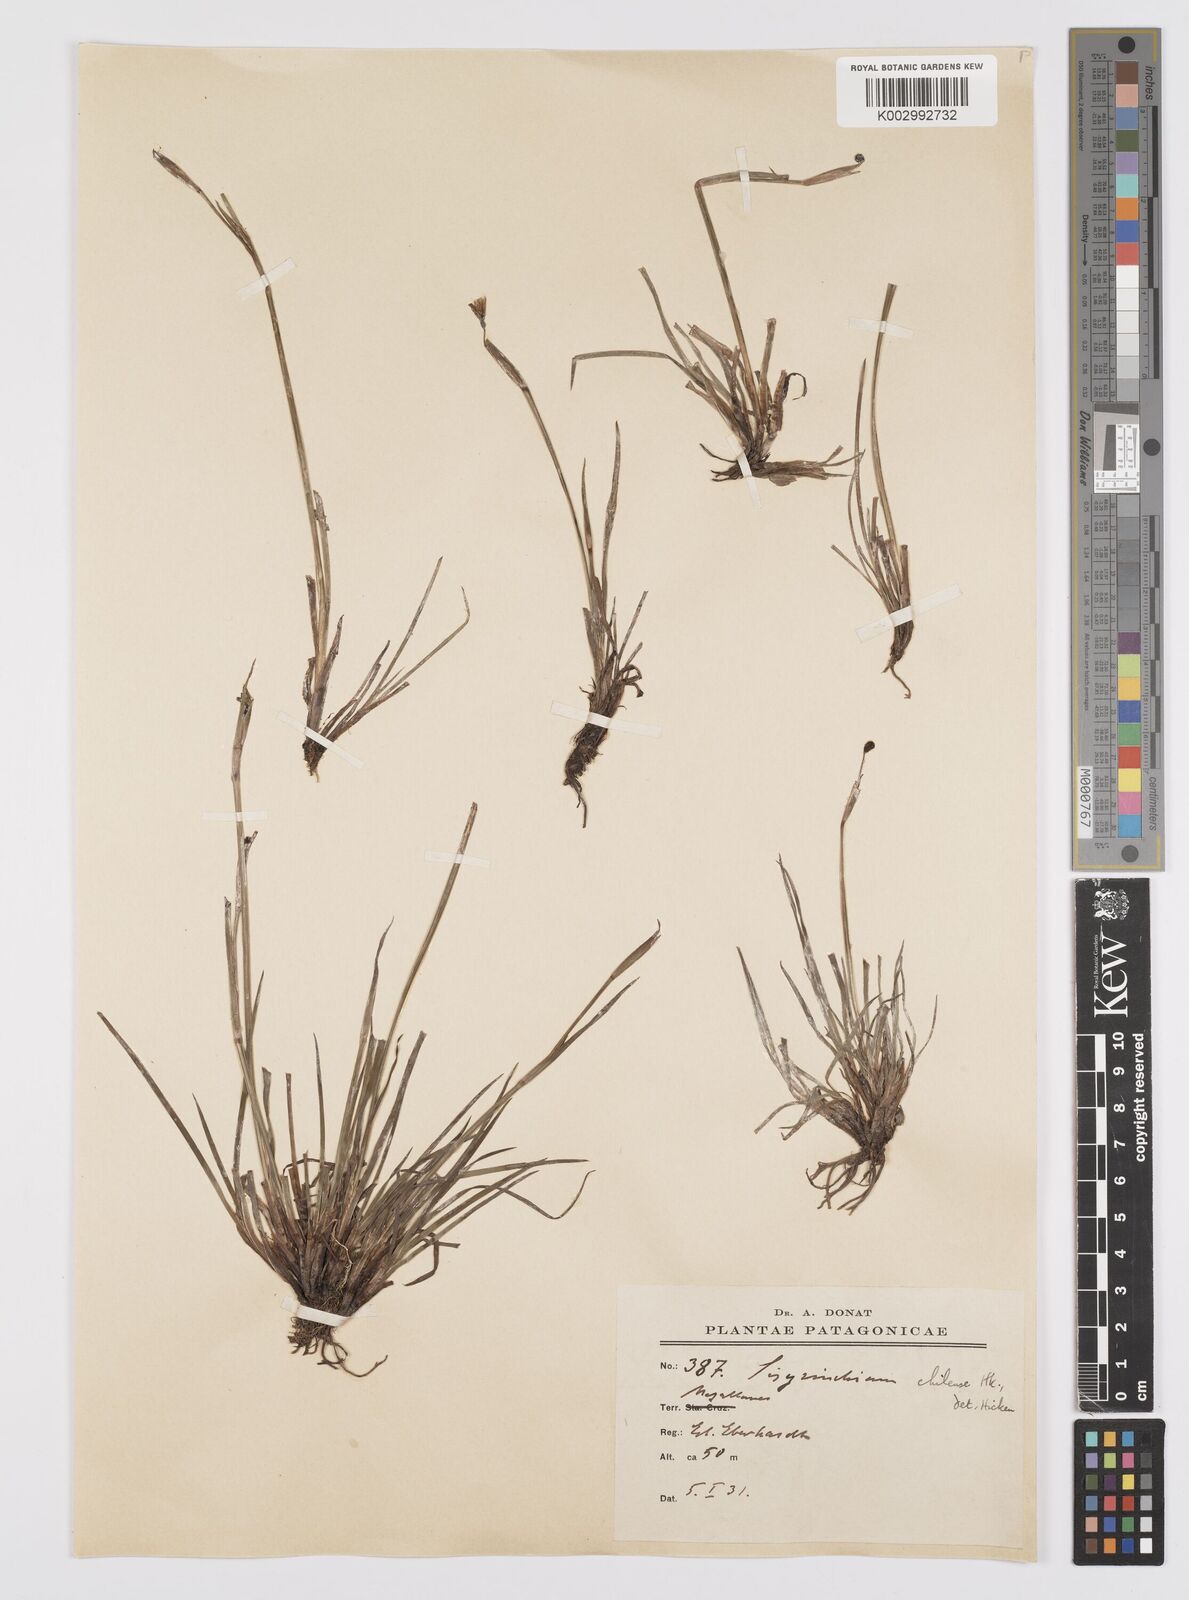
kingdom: Plantae
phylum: Tracheophyta
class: Liliopsida
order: Asparagales
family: Iridaceae
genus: Sisyrinchium
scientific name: Sisyrinchium chilense
